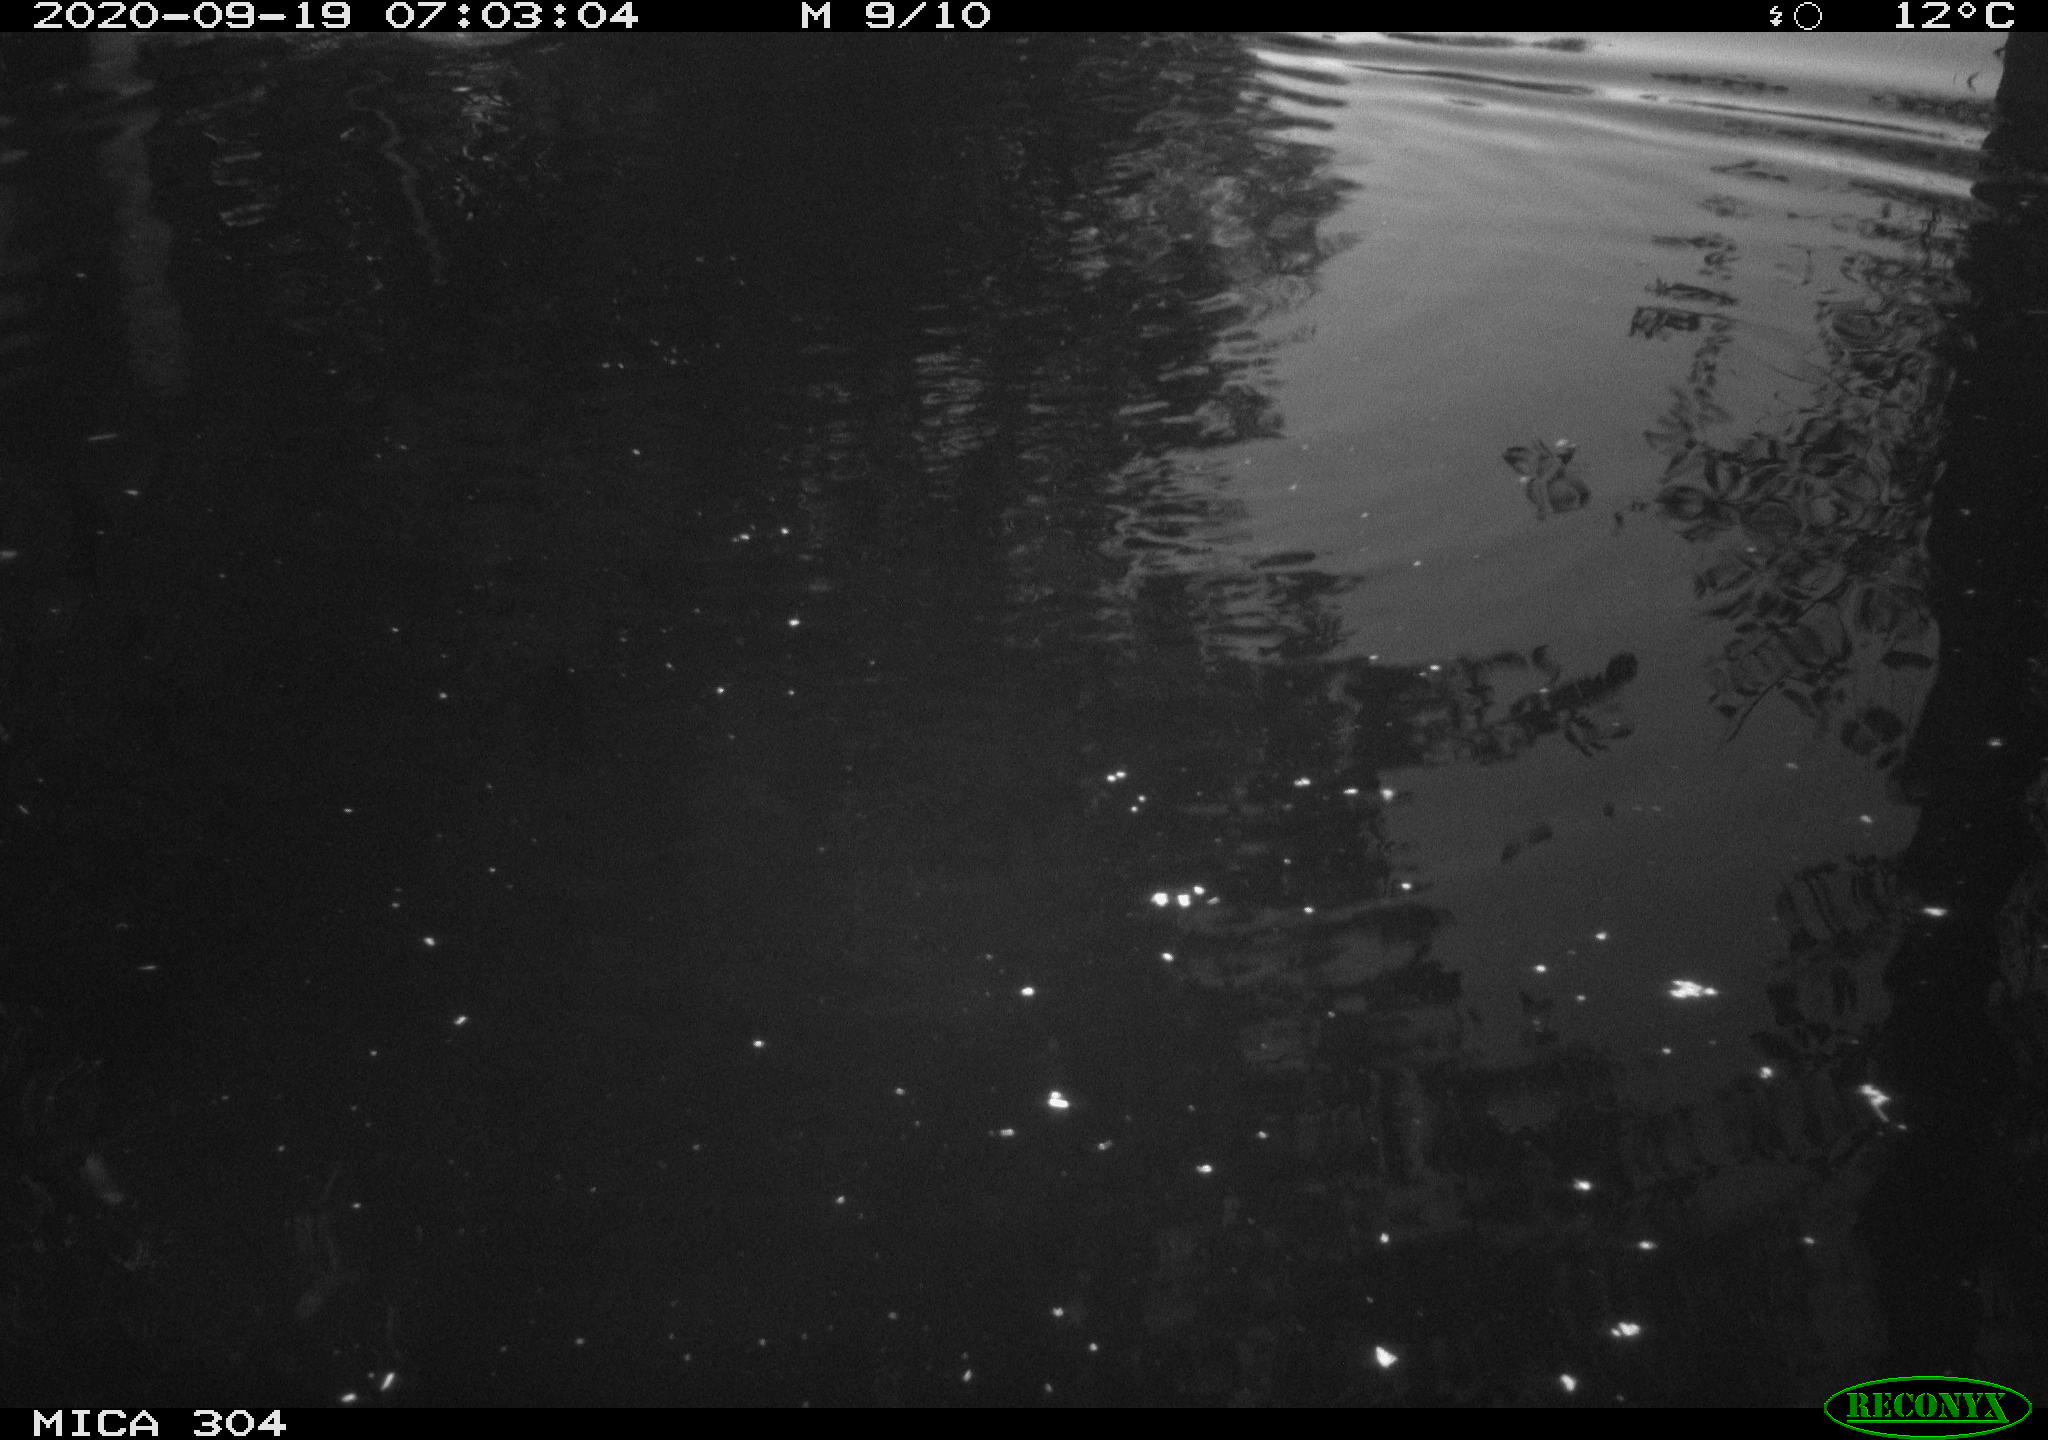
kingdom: Animalia
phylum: Chordata
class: Aves
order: Anseriformes
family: Anatidae
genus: Mareca
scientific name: Mareca strepera
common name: Gadwall
